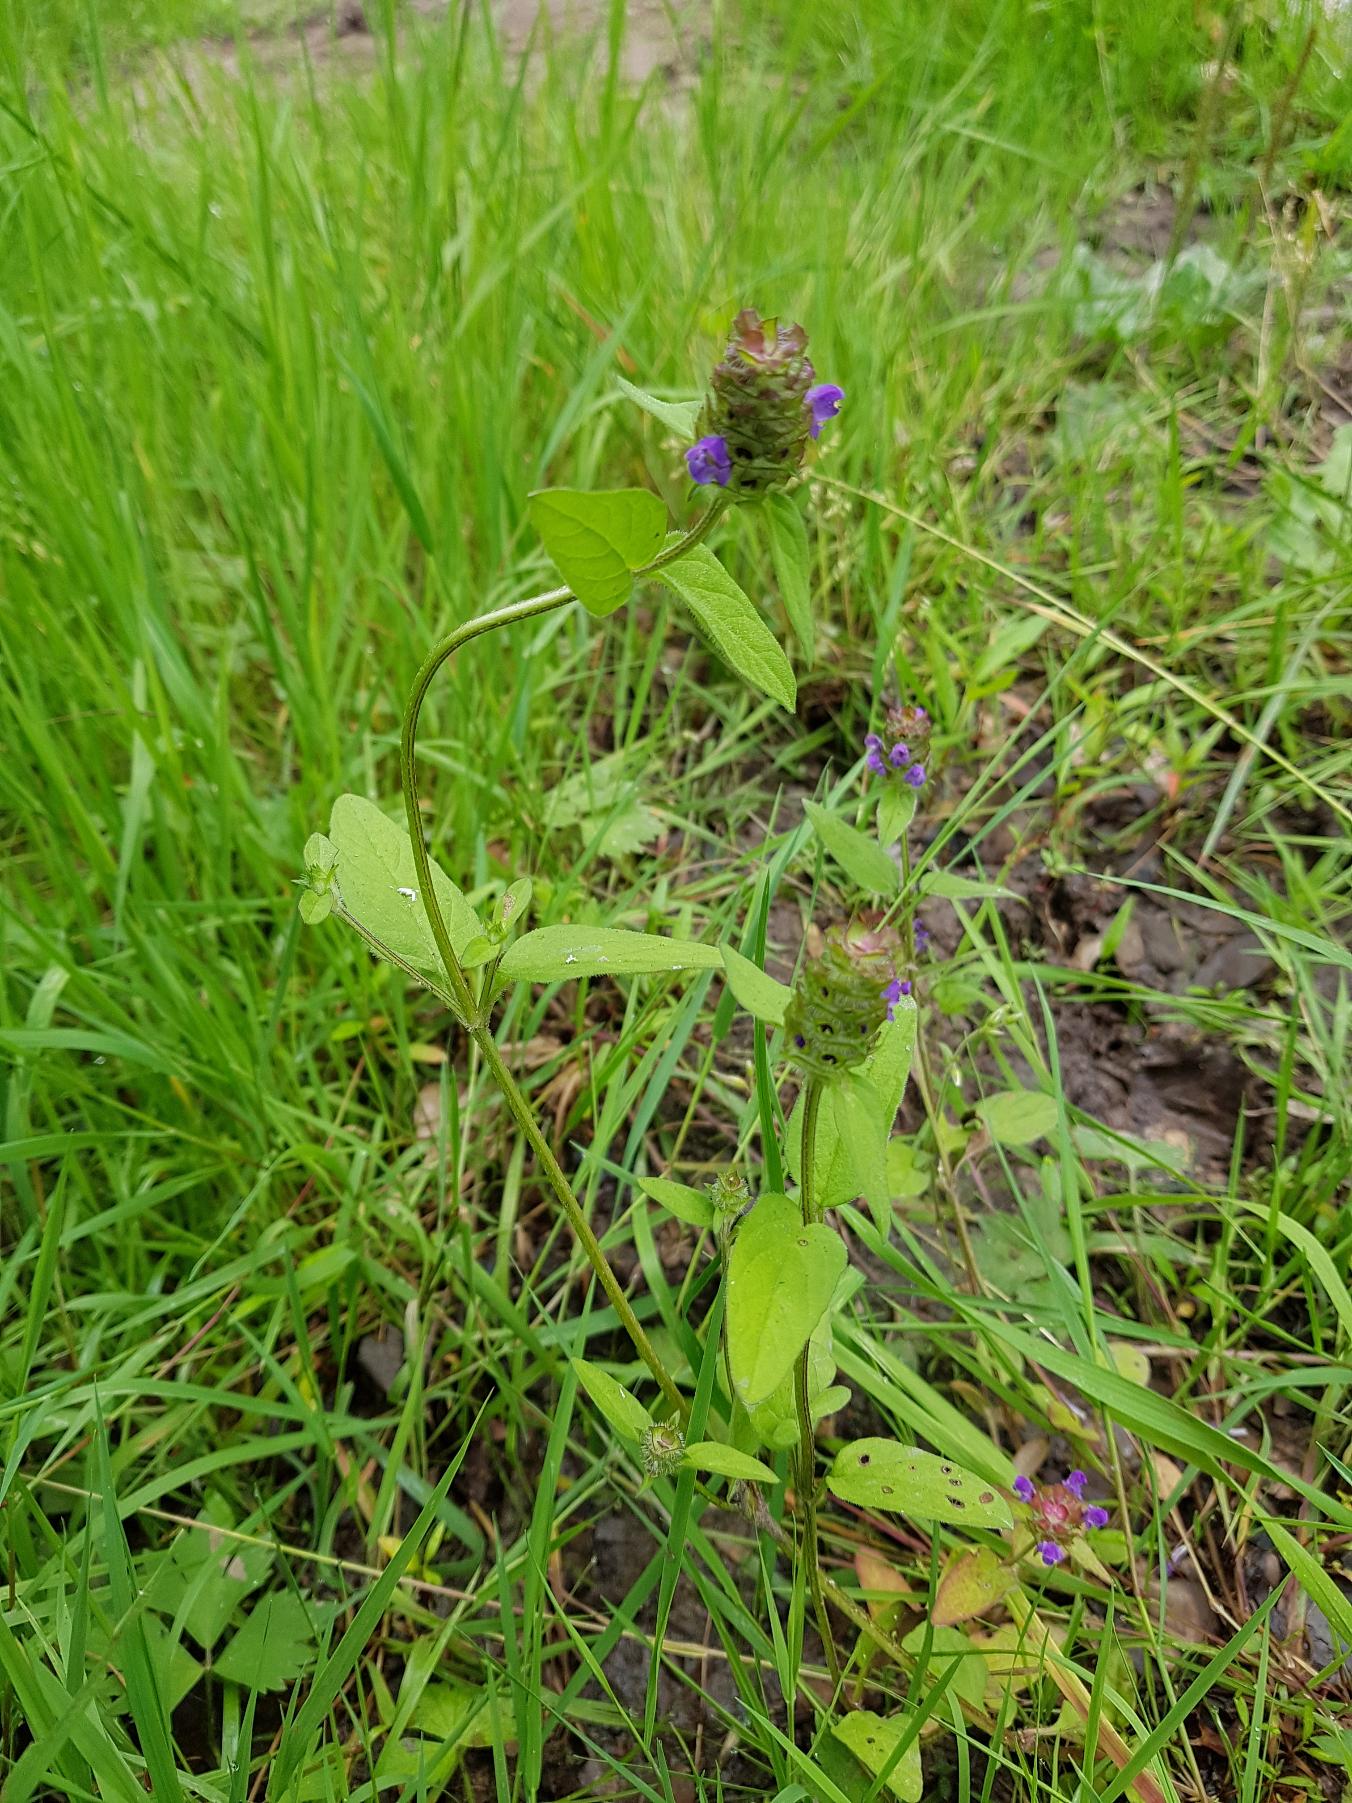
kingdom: Plantae
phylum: Tracheophyta
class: Magnoliopsida
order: Lamiales
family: Lamiaceae
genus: Prunella
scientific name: Prunella vulgaris
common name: Almindelig brunelle
